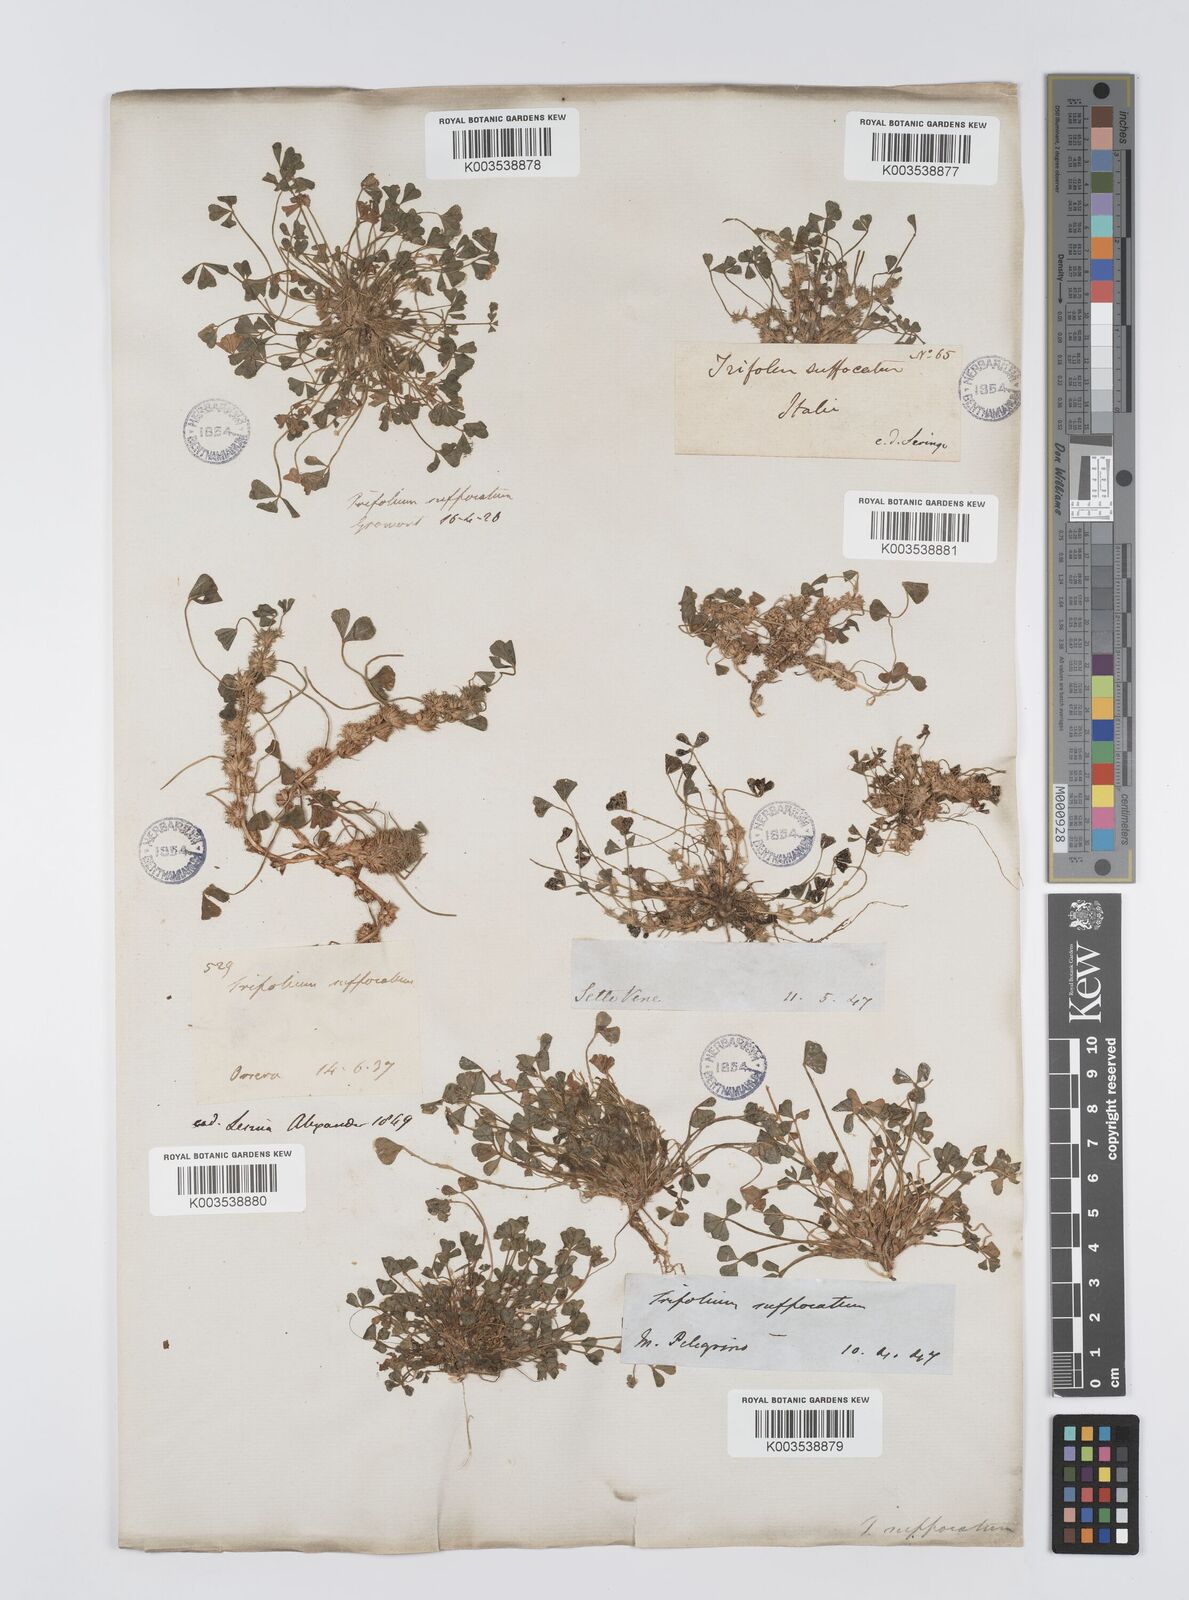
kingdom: Plantae
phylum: Tracheophyta
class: Magnoliopsida
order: Fabales
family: Fabaceae
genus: Trifolium
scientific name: Trifolium suffocatum
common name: Suffocated clover
